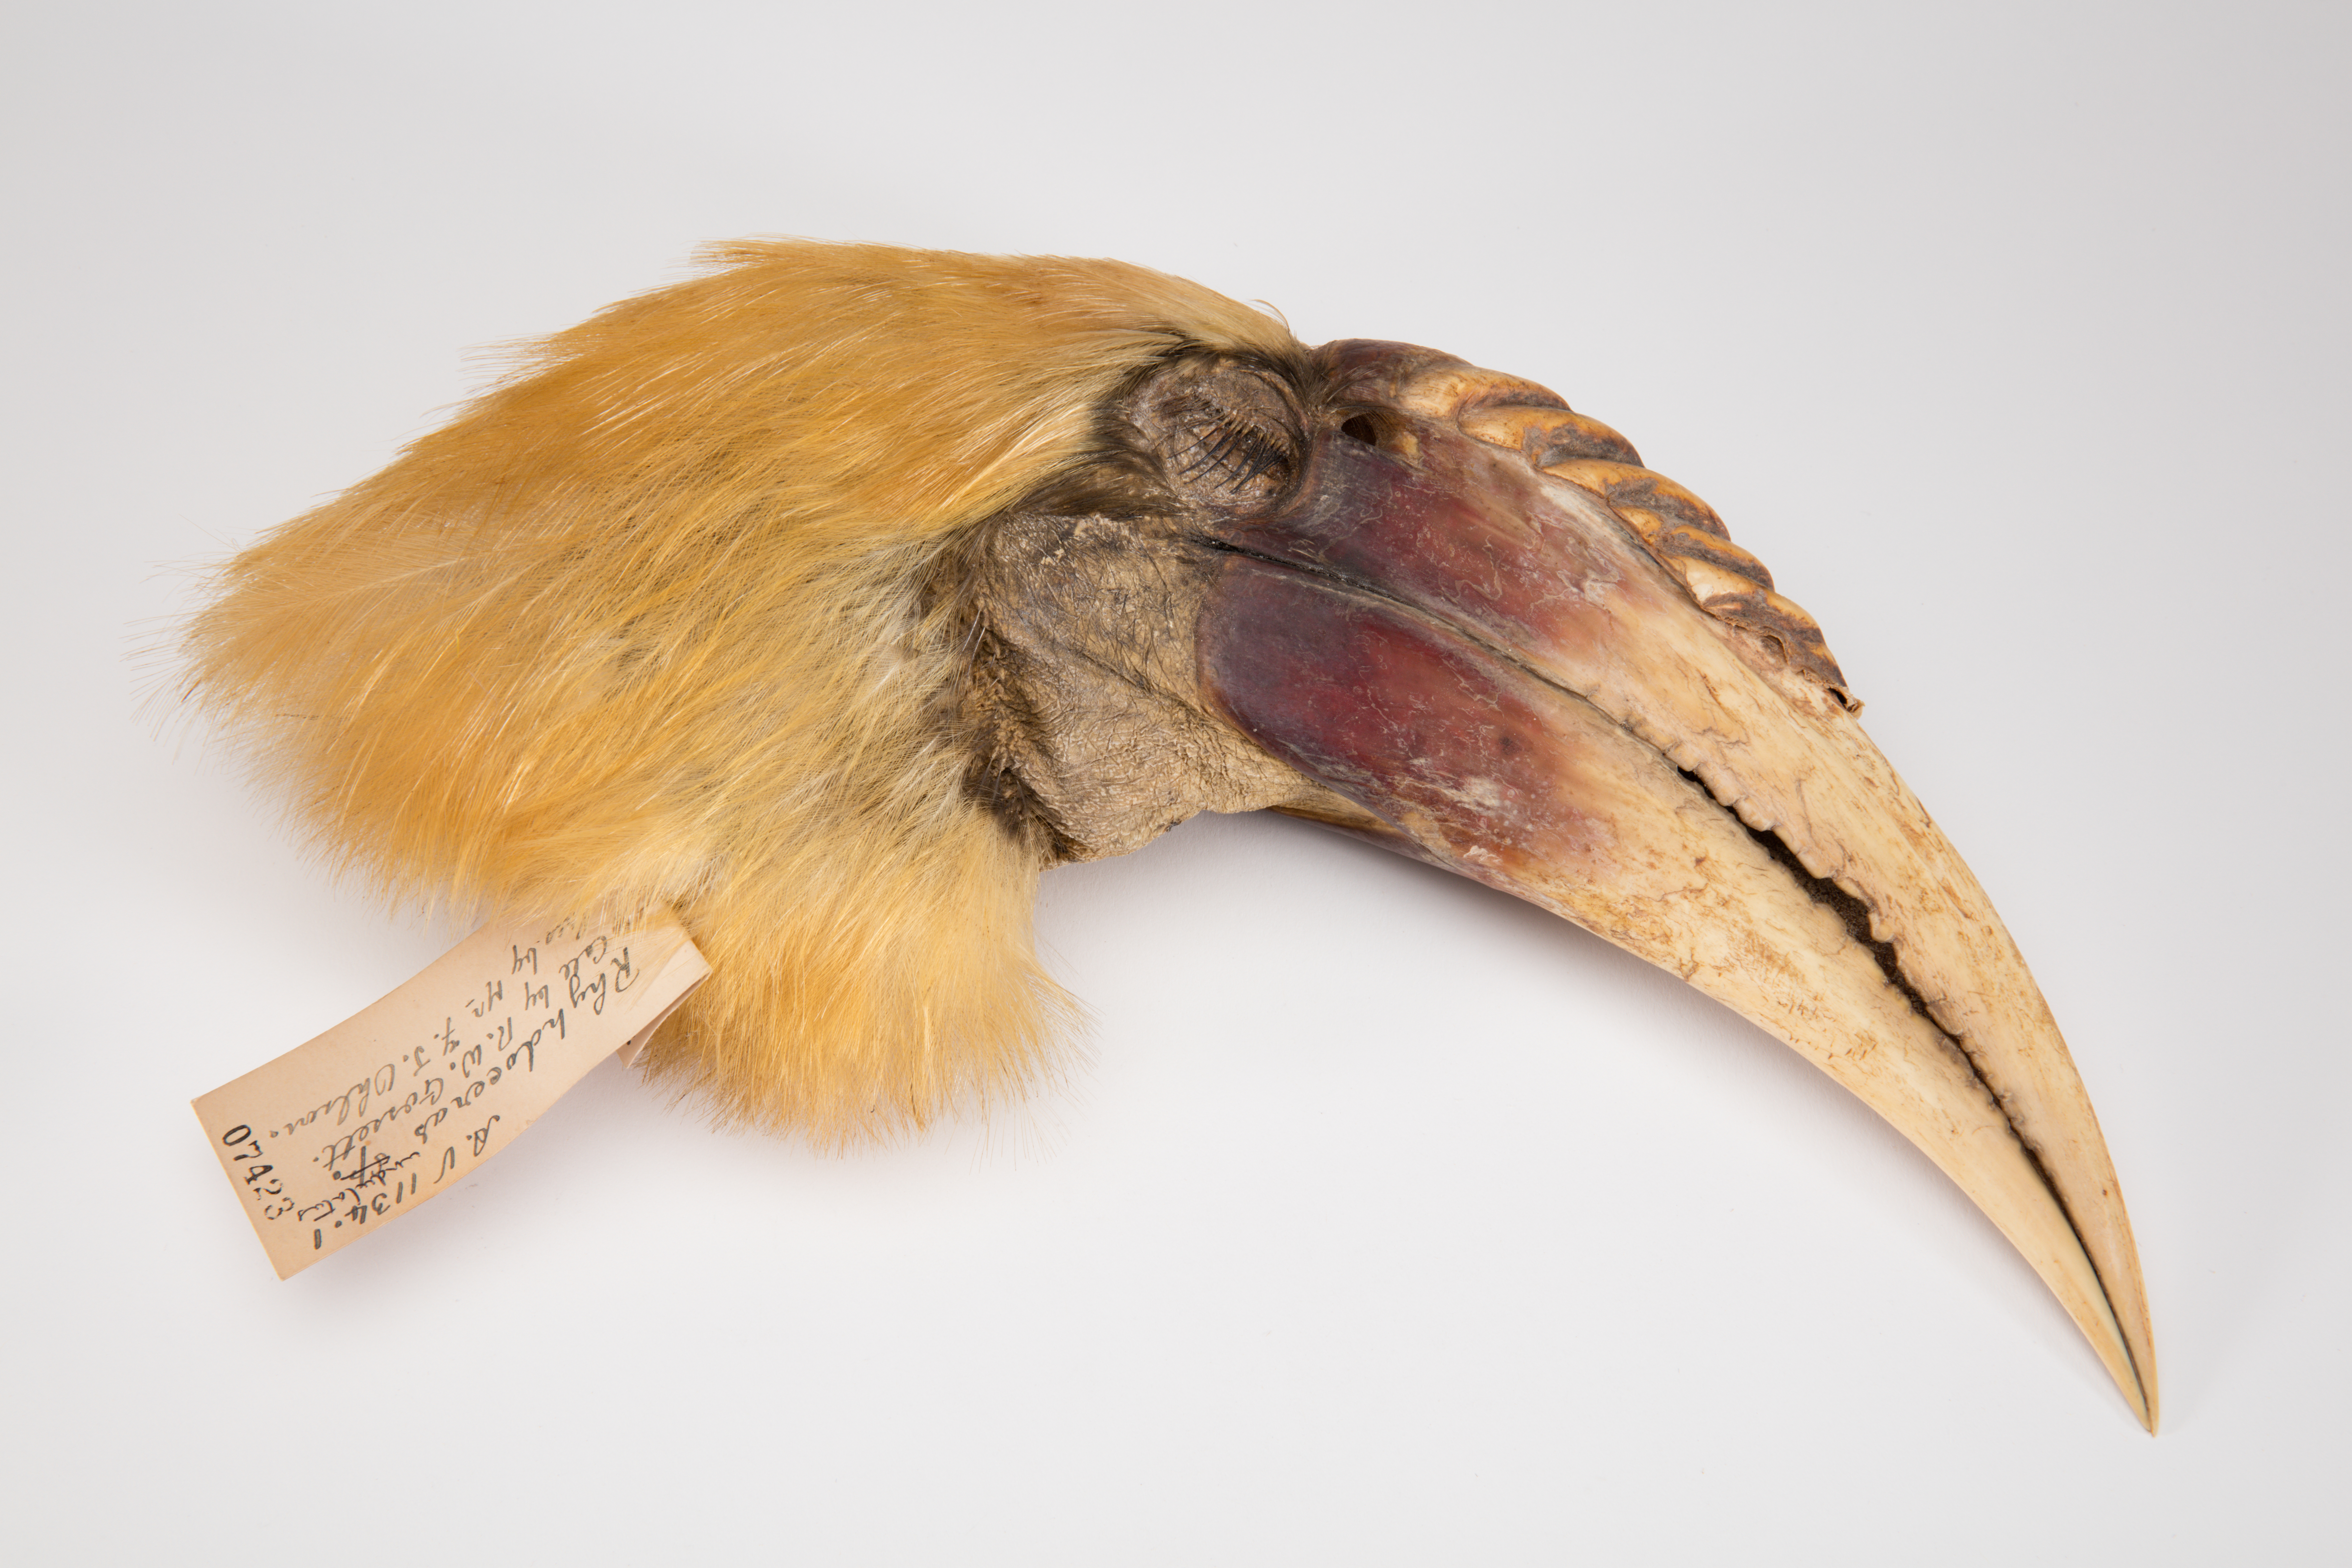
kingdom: Animalia
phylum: Chordata
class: Aves
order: Bucerotiformes
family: Bucerotidae
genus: Rhyticeros
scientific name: Rhyticeros undulatus
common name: Wreathed hornbill
